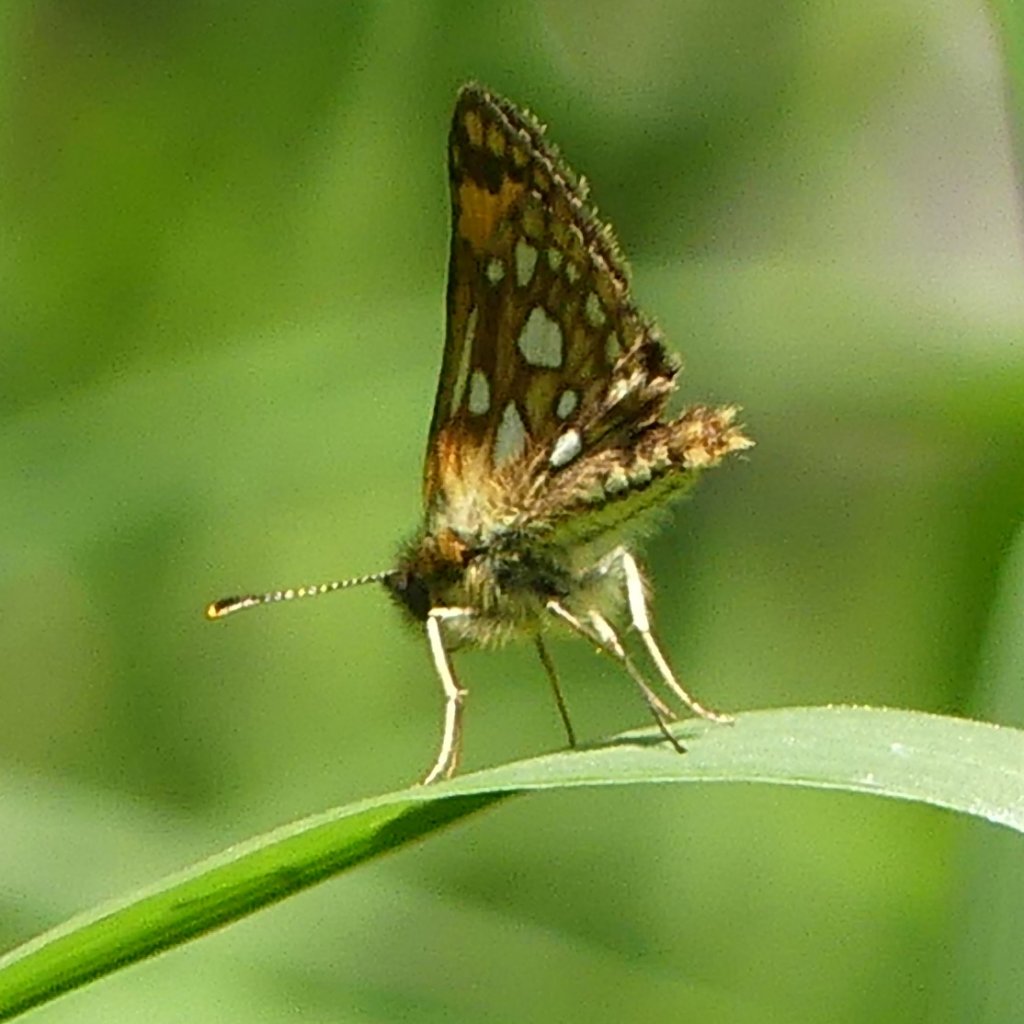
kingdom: Animalia
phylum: Arthropoda
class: Insecta
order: Lepidoptera
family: Hesperiidae
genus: Carterocephalus
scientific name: Carterocephalus palaemon
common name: Chequered Skipper
